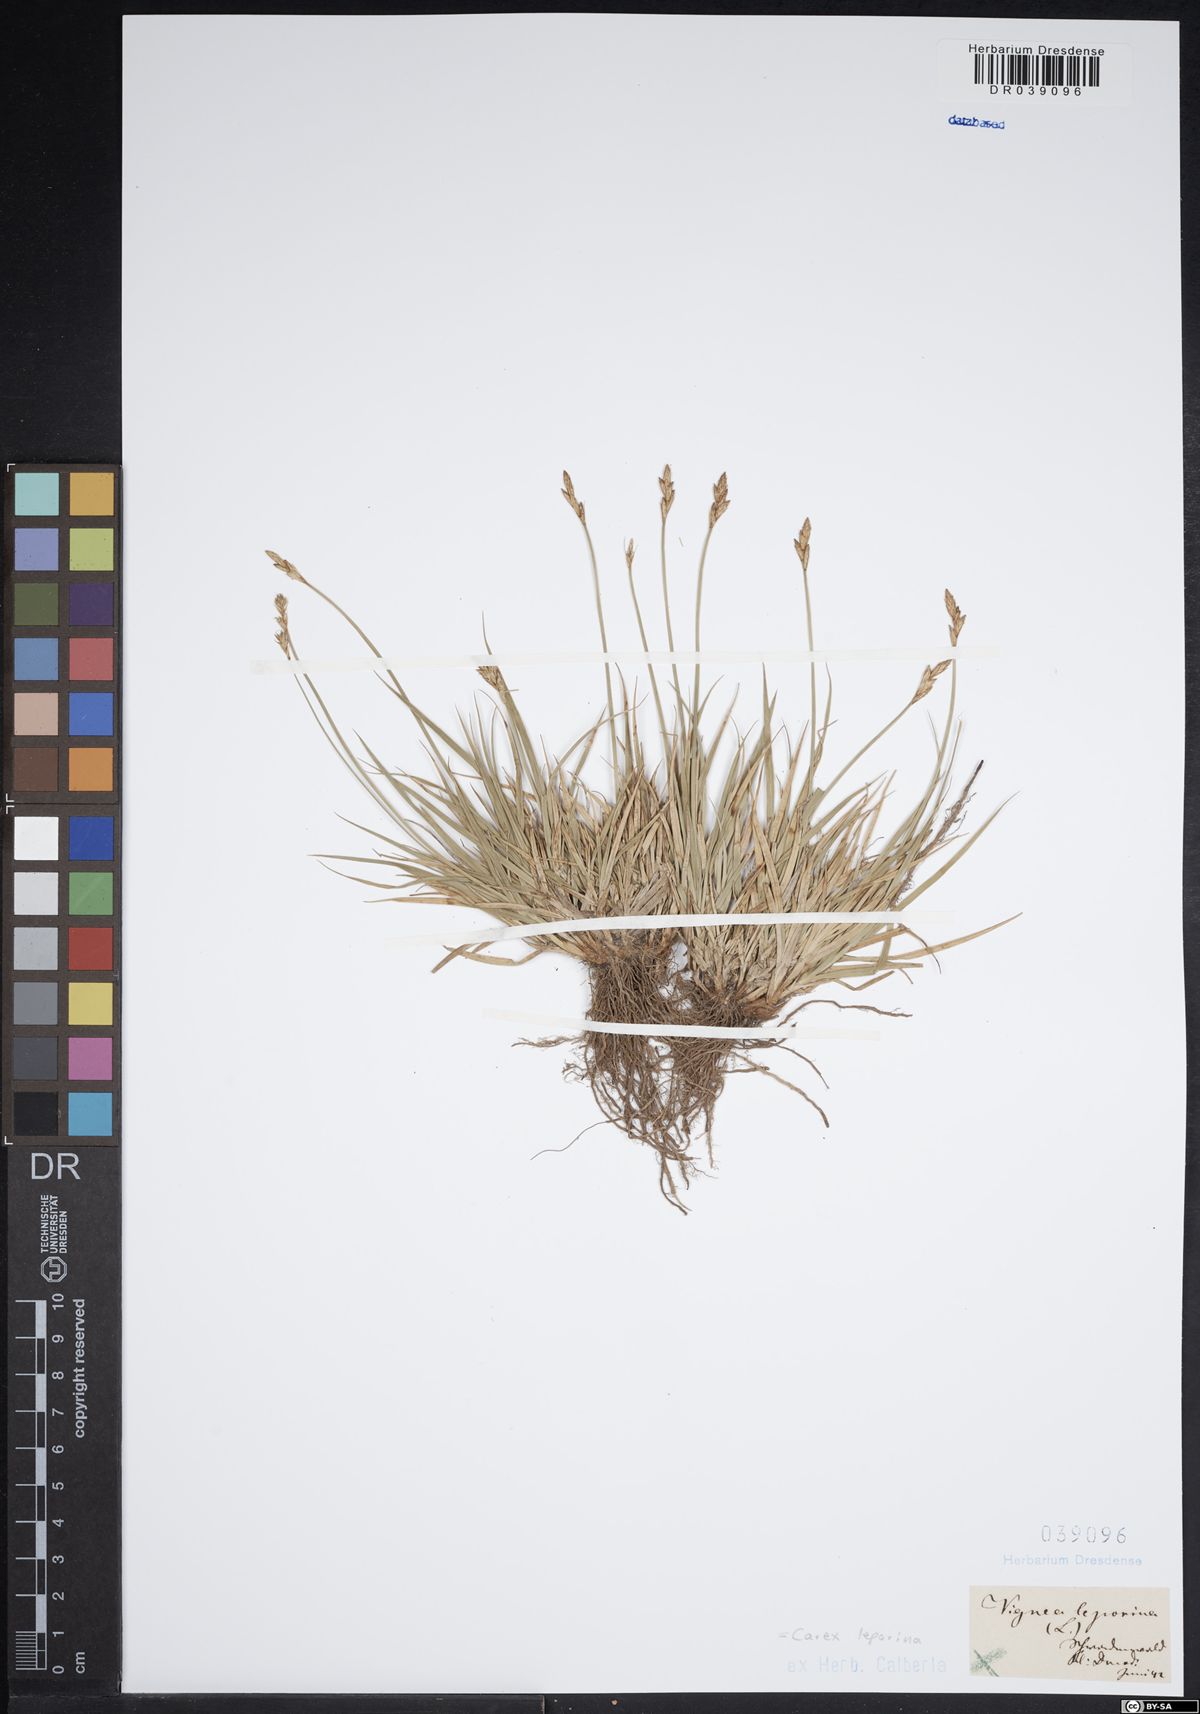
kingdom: Plantae
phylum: Tracheophyta
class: Liliopsida
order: Poales
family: Cyperaceae
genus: Carex
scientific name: Carex leporina
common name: Oval sedge
